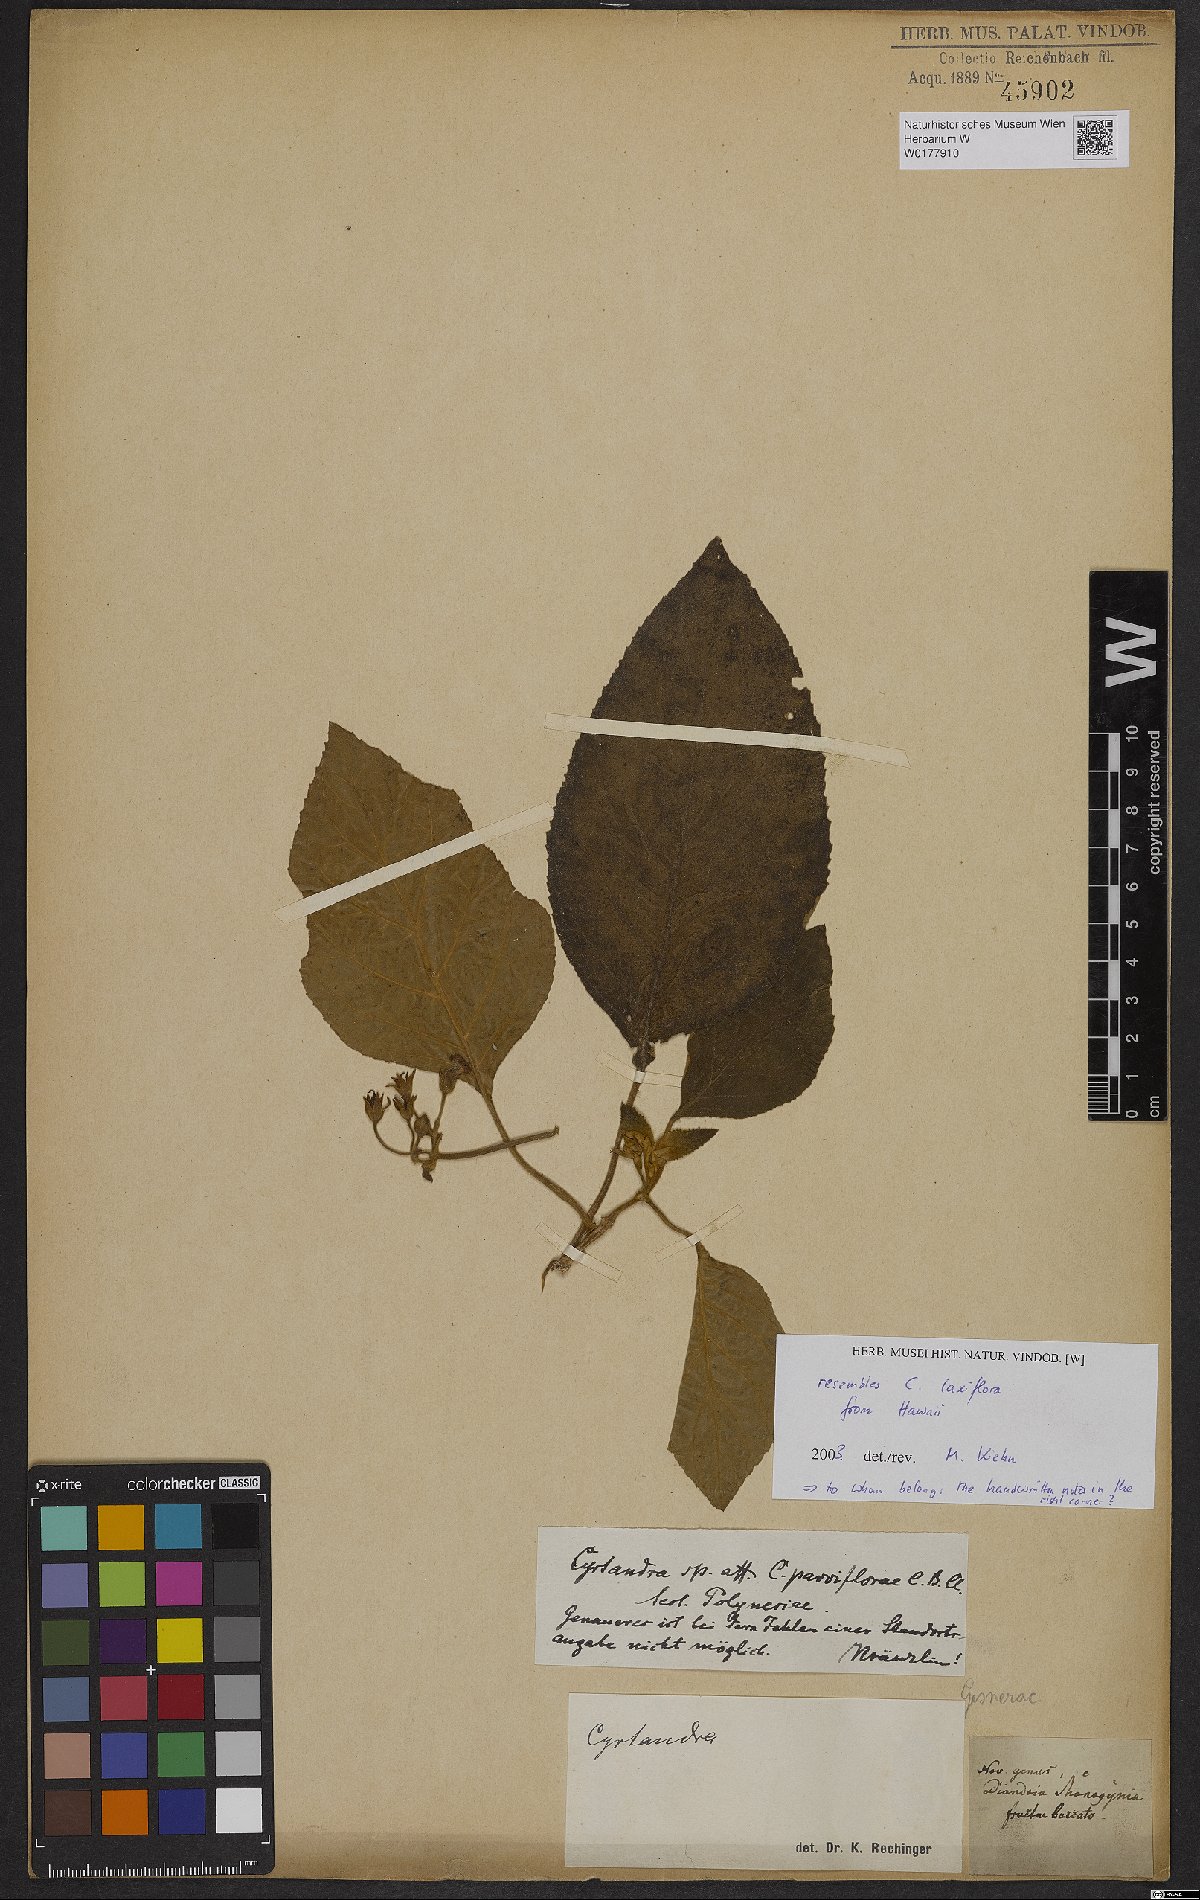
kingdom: Plantae
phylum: Tracheophyta
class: Magnoliopsida
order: Lamiales
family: Gesneriaceae
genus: Cyrtandra
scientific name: Cyrtandra laxiflora
